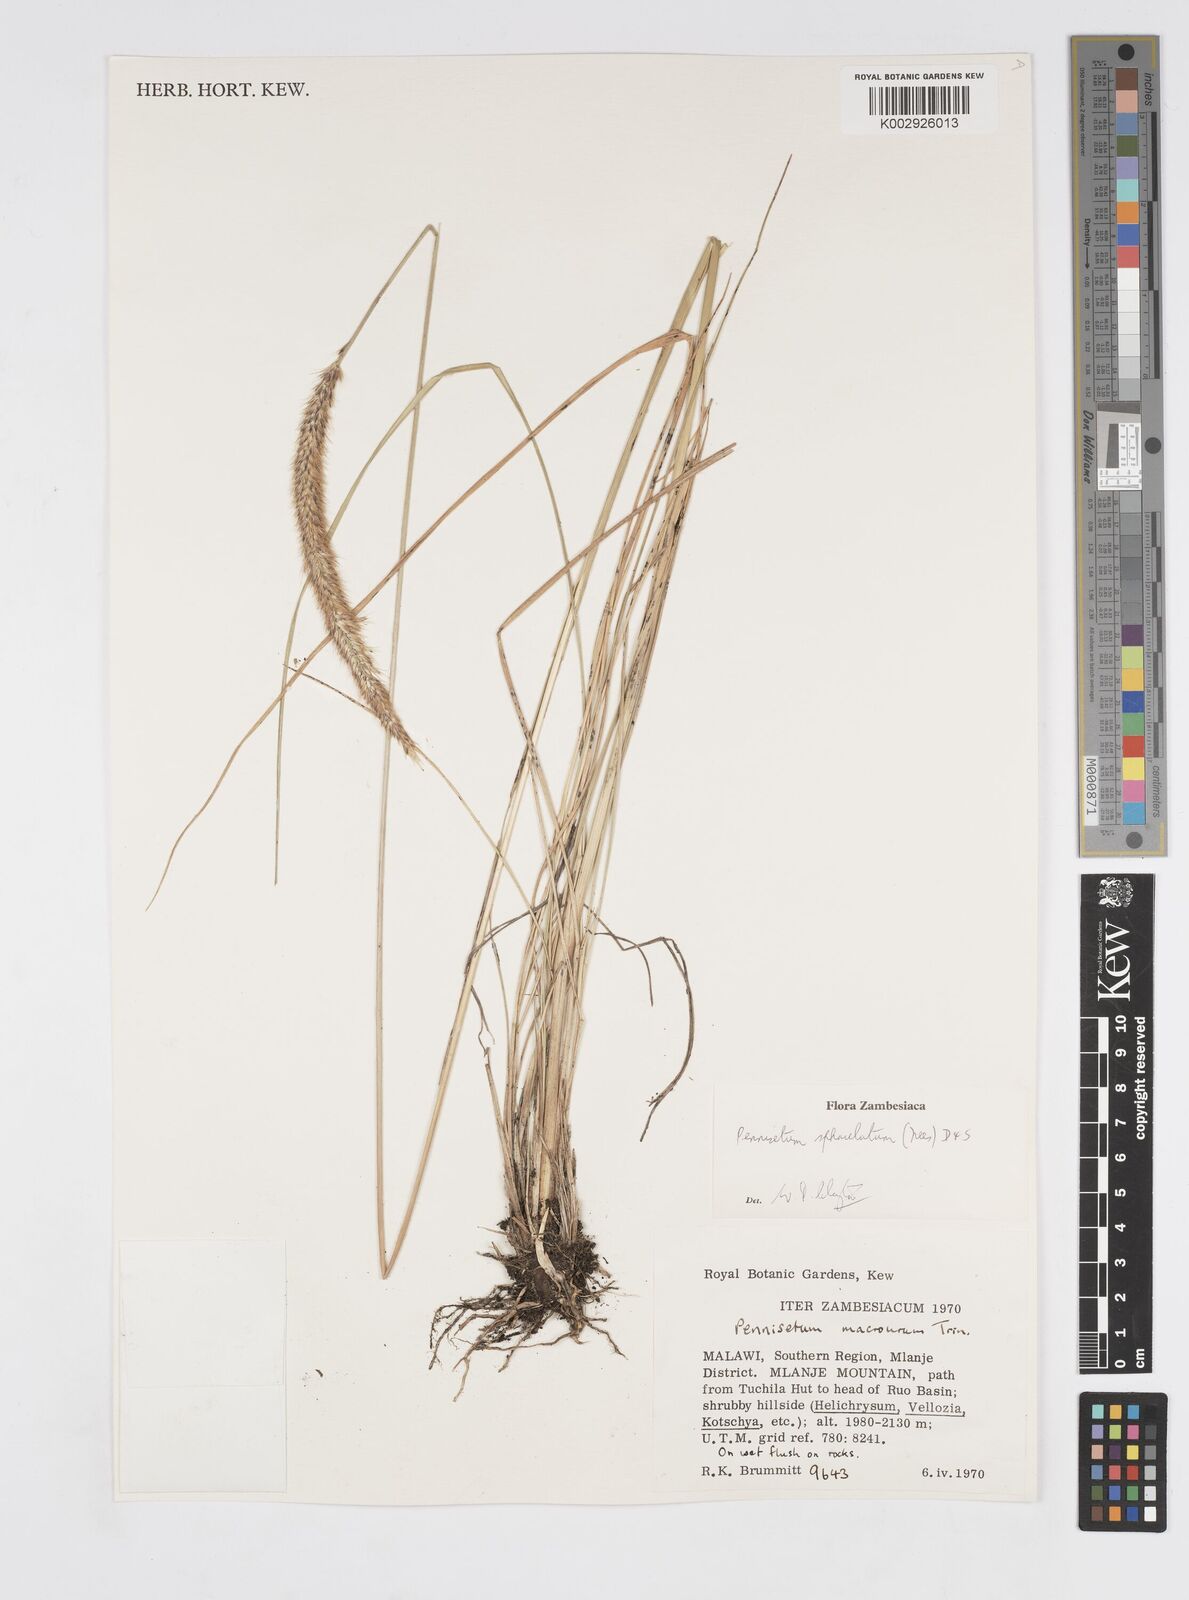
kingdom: Plantae
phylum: Tracheophyta
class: Liliopsida
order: Poales
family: Poaceae
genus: Cenchrus
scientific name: Cenchrus sphacelatus
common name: Bulgras
